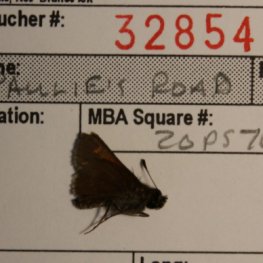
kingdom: Animalia
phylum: Arthropoda
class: Insecta
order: Lepidoptera
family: Hesperiidae
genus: Polites
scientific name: Polites themistocles
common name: Tawny-edged Skipper
